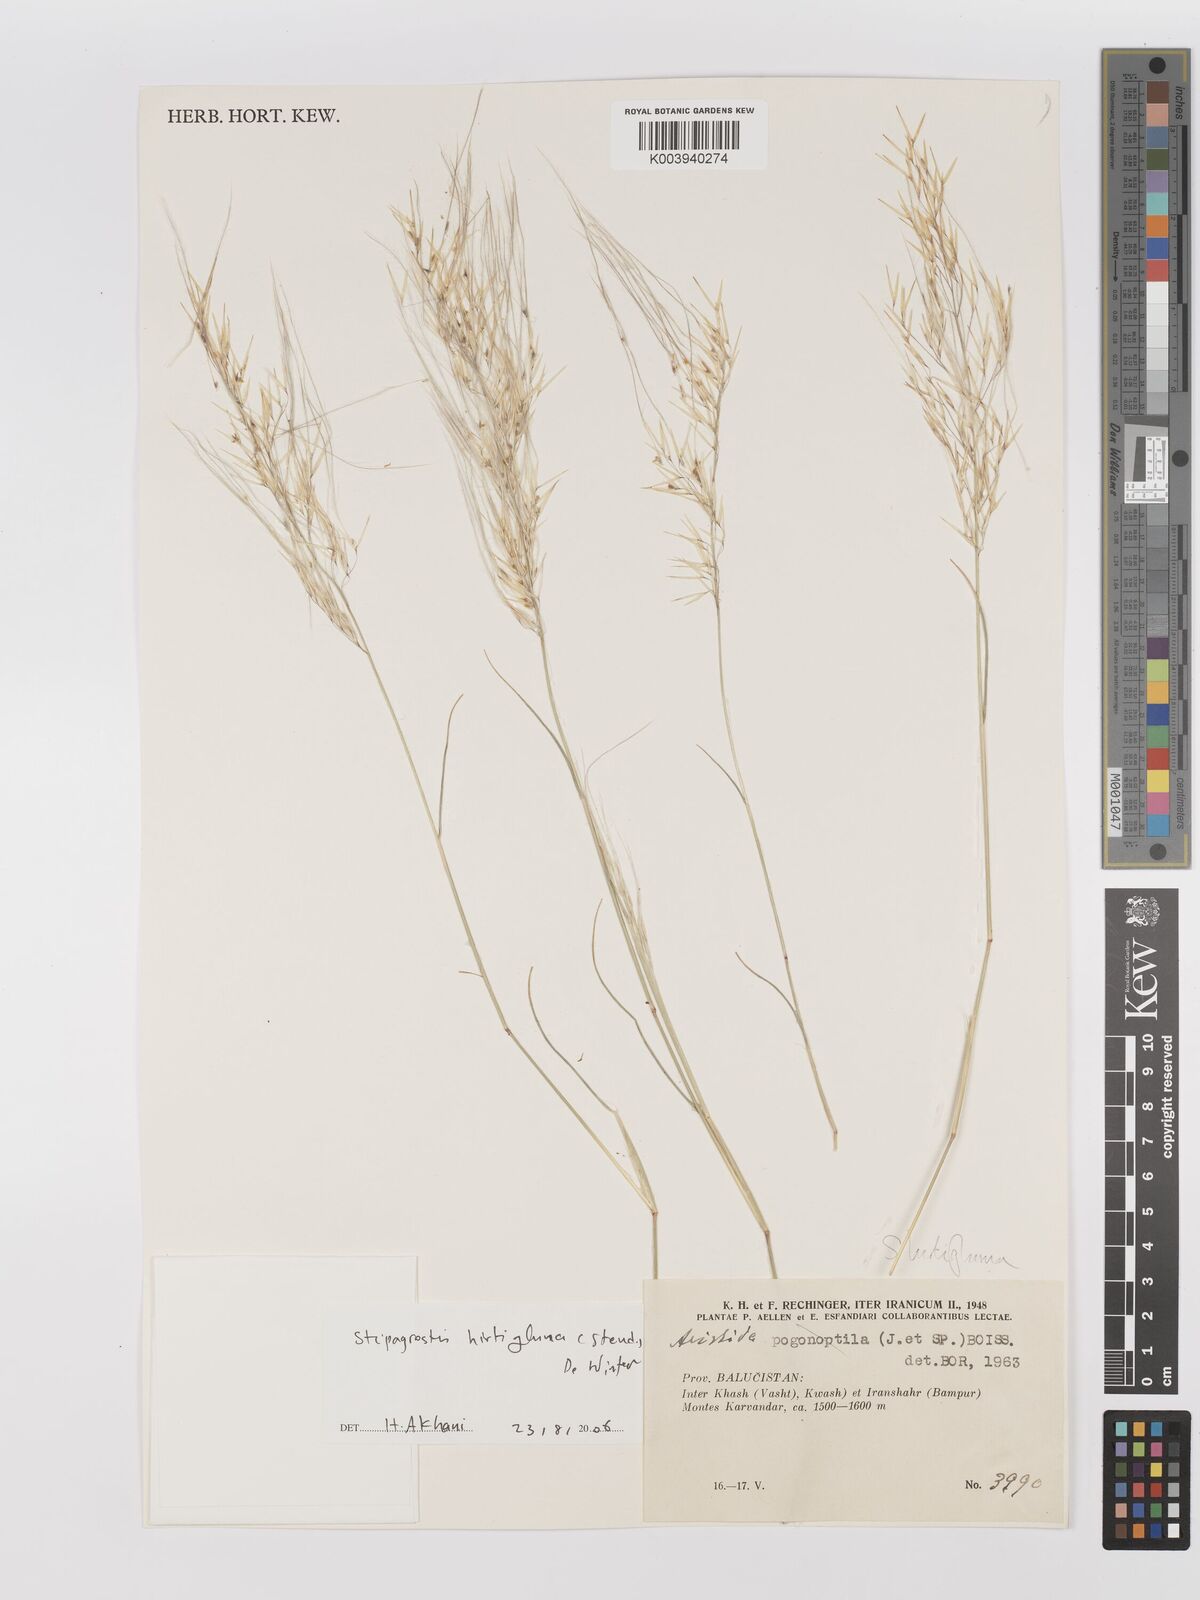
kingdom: Plantae
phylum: Tracheophyta
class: Liliopsida
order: Poales
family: Poaceae
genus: Stipagrostis
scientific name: Stipagrostis hirtigluma
